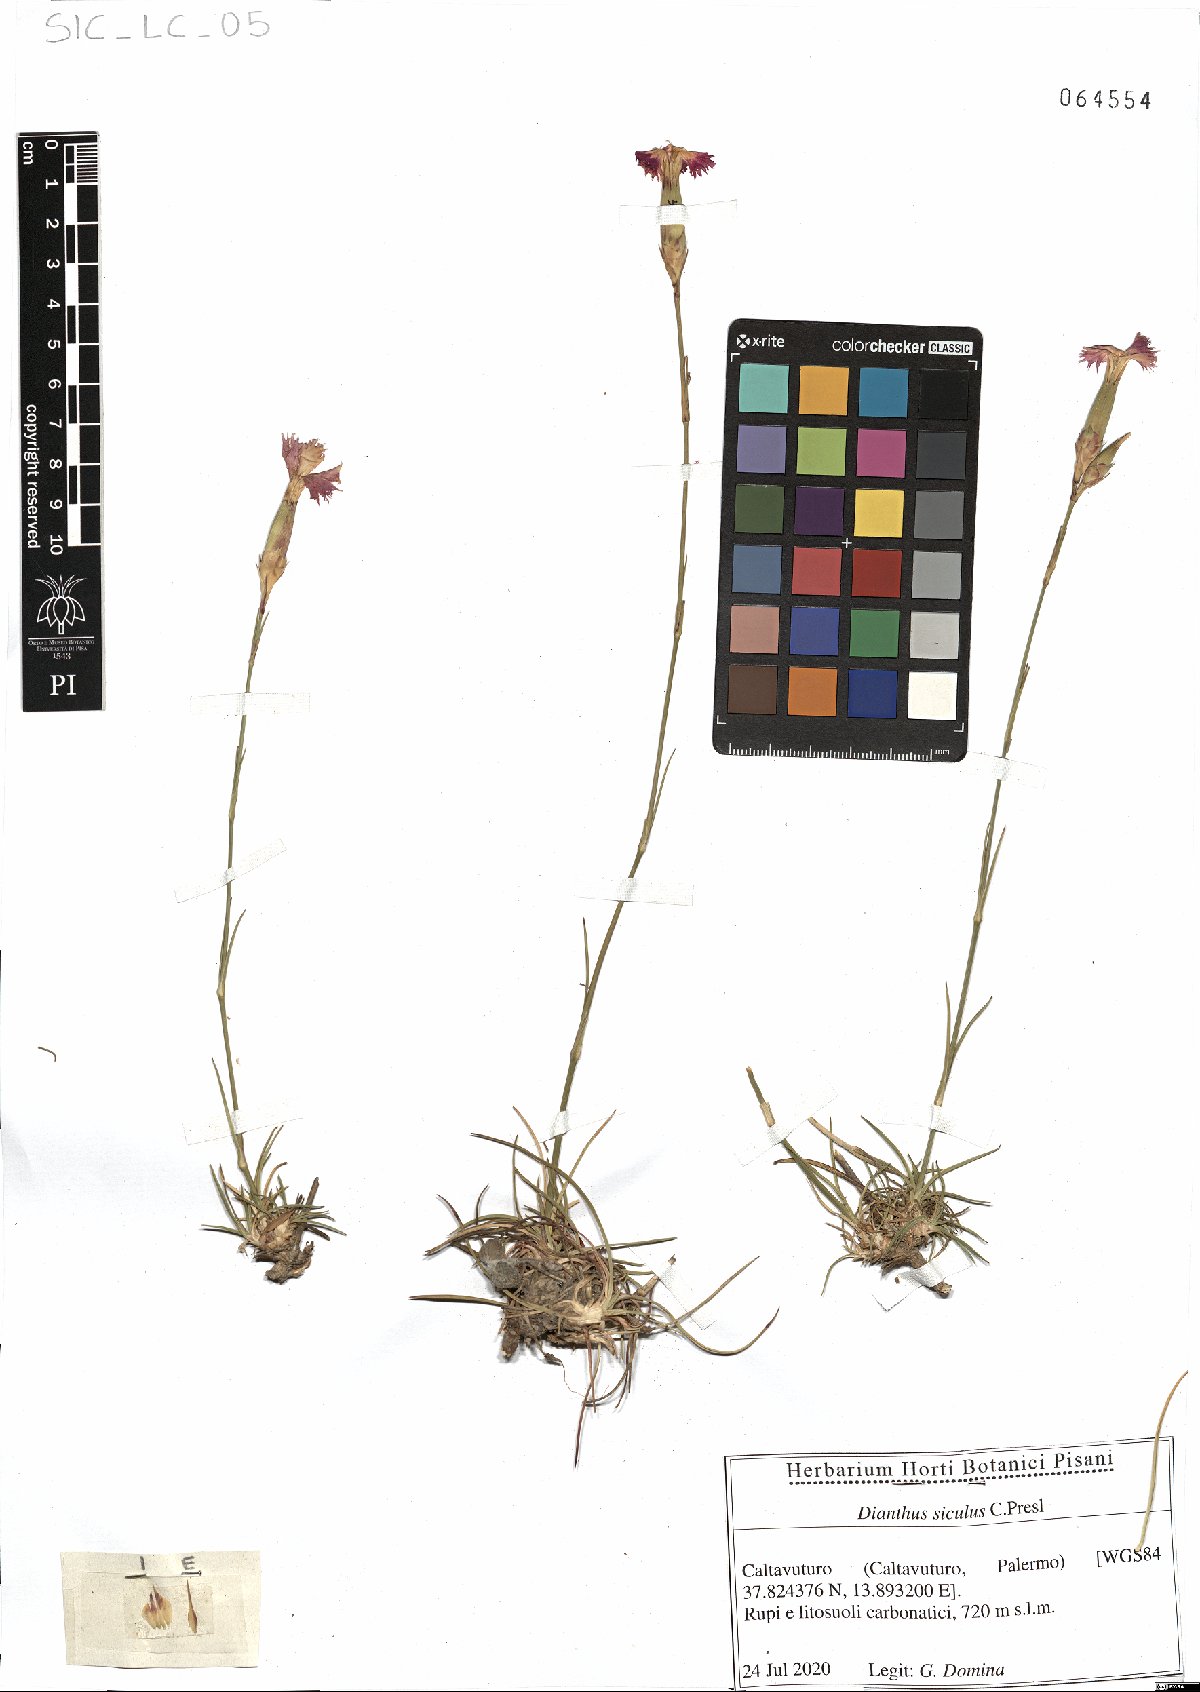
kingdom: Plantae
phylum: Tracheophyta
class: Magnoliopsida
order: Caryophyllales
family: Caryophyllaceae
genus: Dianthus
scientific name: Dianthus siculus
